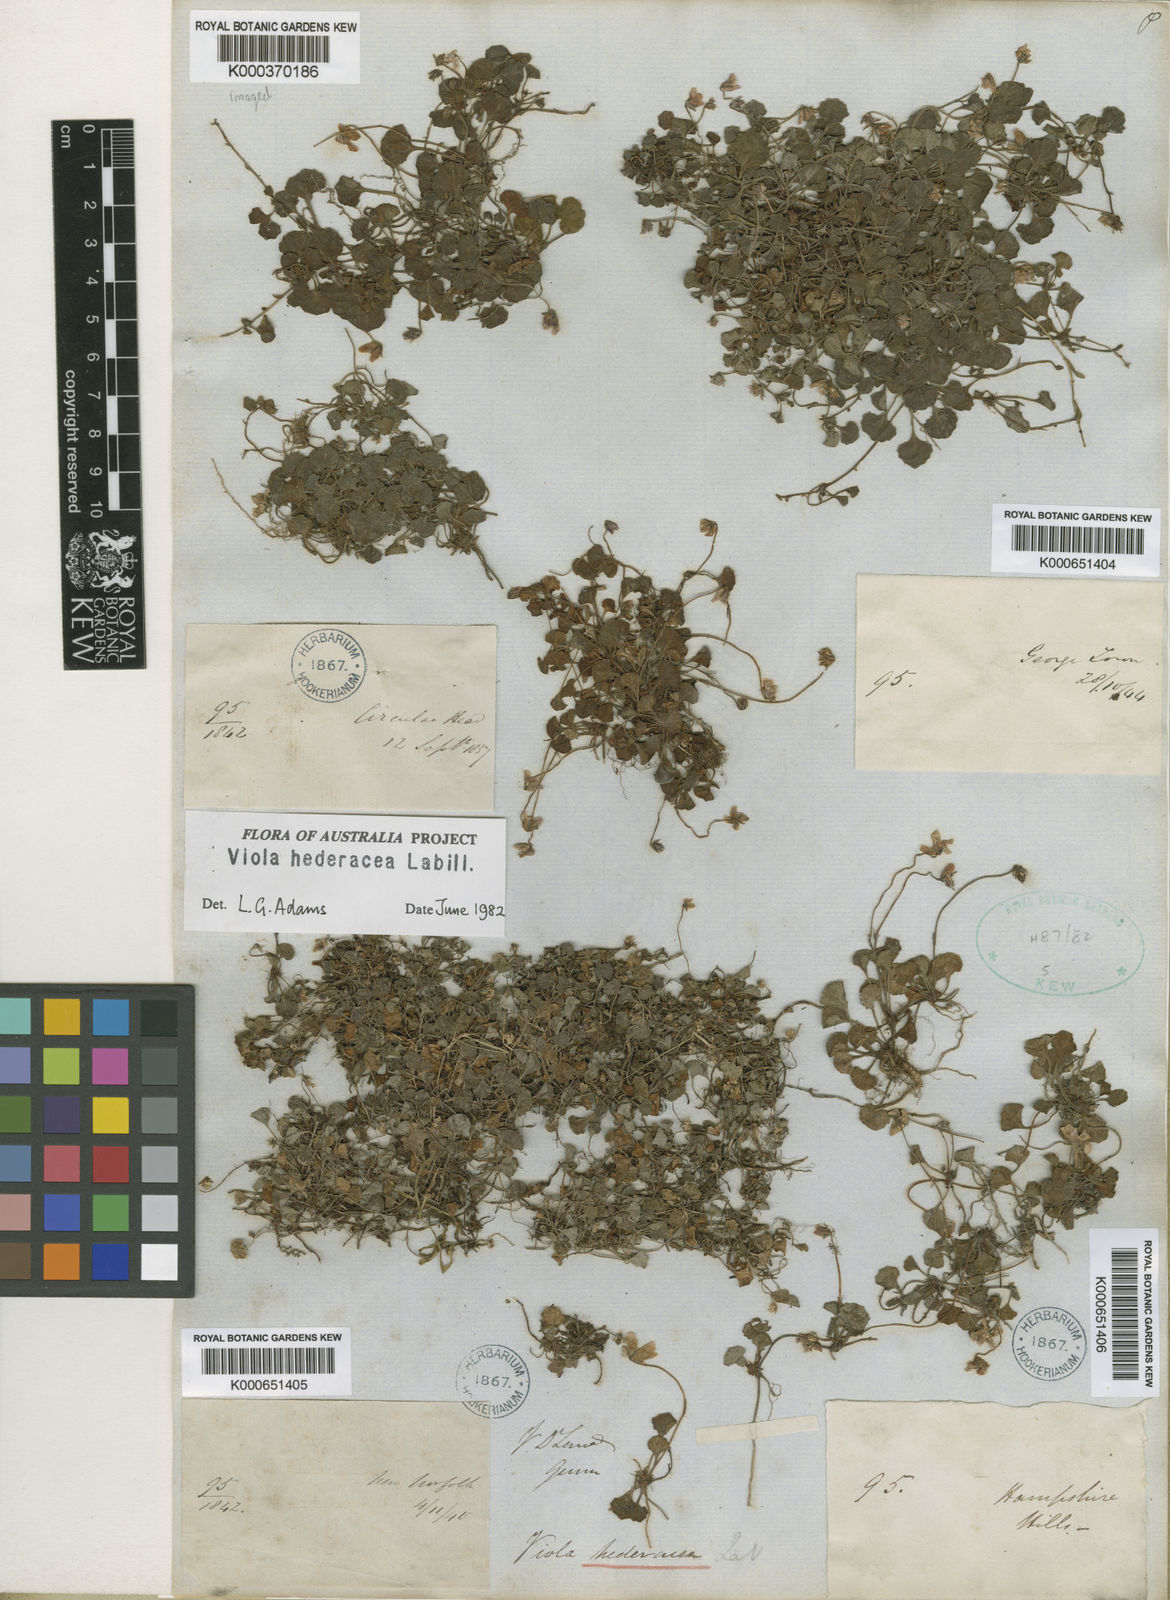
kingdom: Plantae
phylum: Tracheophyta
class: Magnoliopsida
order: Malpighiales
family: Violaceae
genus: Viola
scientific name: Viola hederacea
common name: Australian violet
